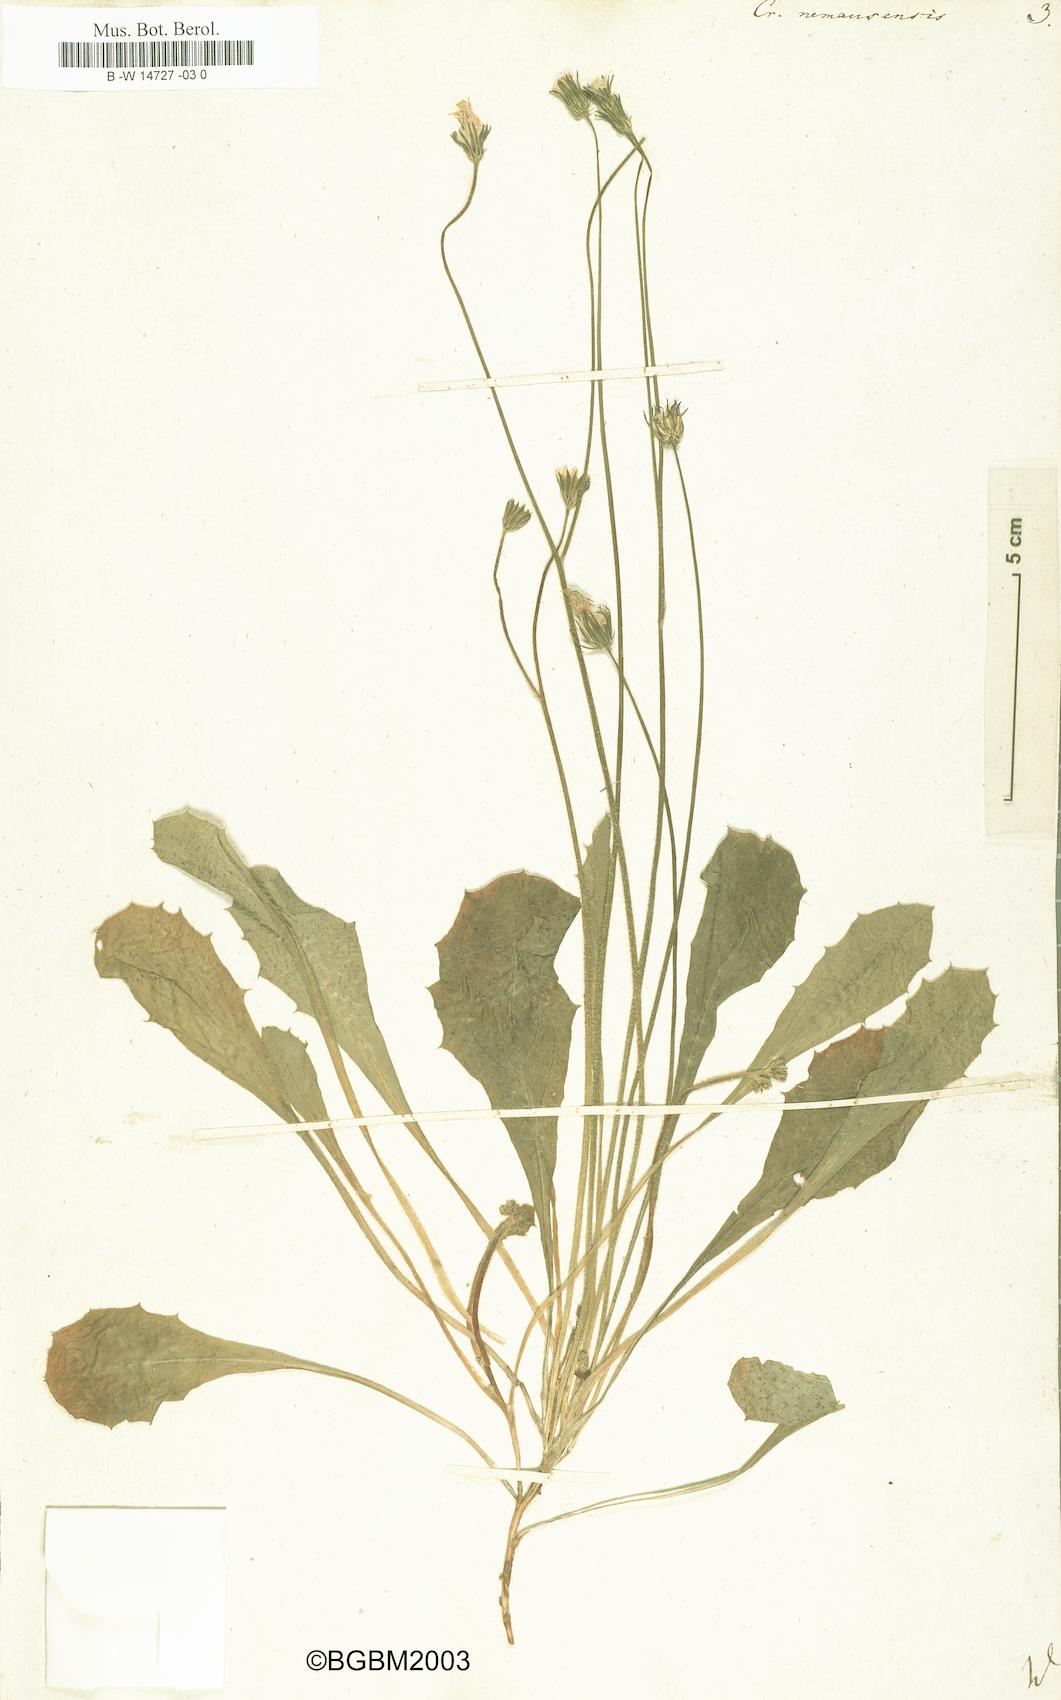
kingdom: Plantae
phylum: Tracheophyta
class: Magnoliopsida
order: Asterales
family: Asteraceae
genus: Crepis
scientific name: Crepis nemausensis
